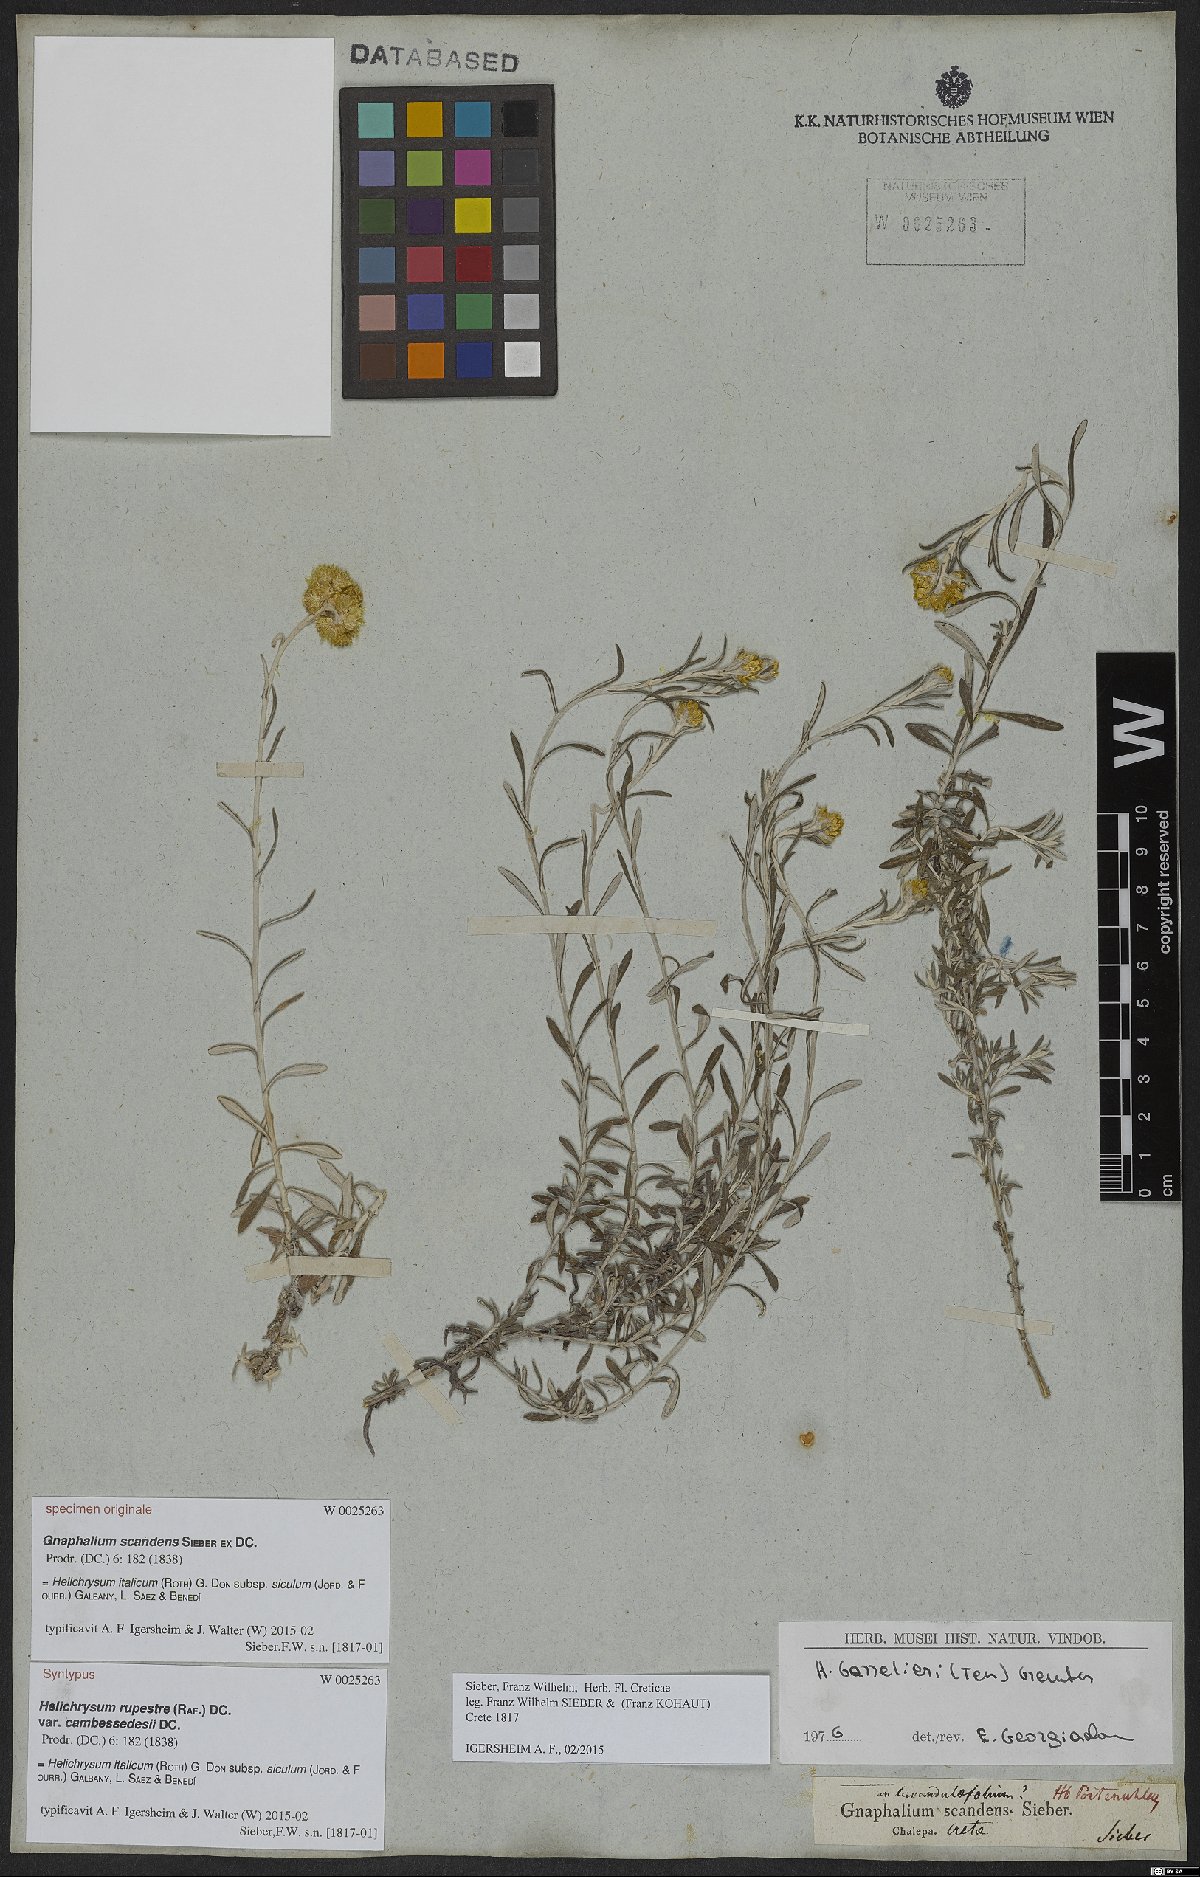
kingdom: Plantae
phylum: Tracheophyta
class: Magnoliopsida
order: Asterales
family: Asteraceae
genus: Helichrysum
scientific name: Helichrysum italicum
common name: Curryplant
